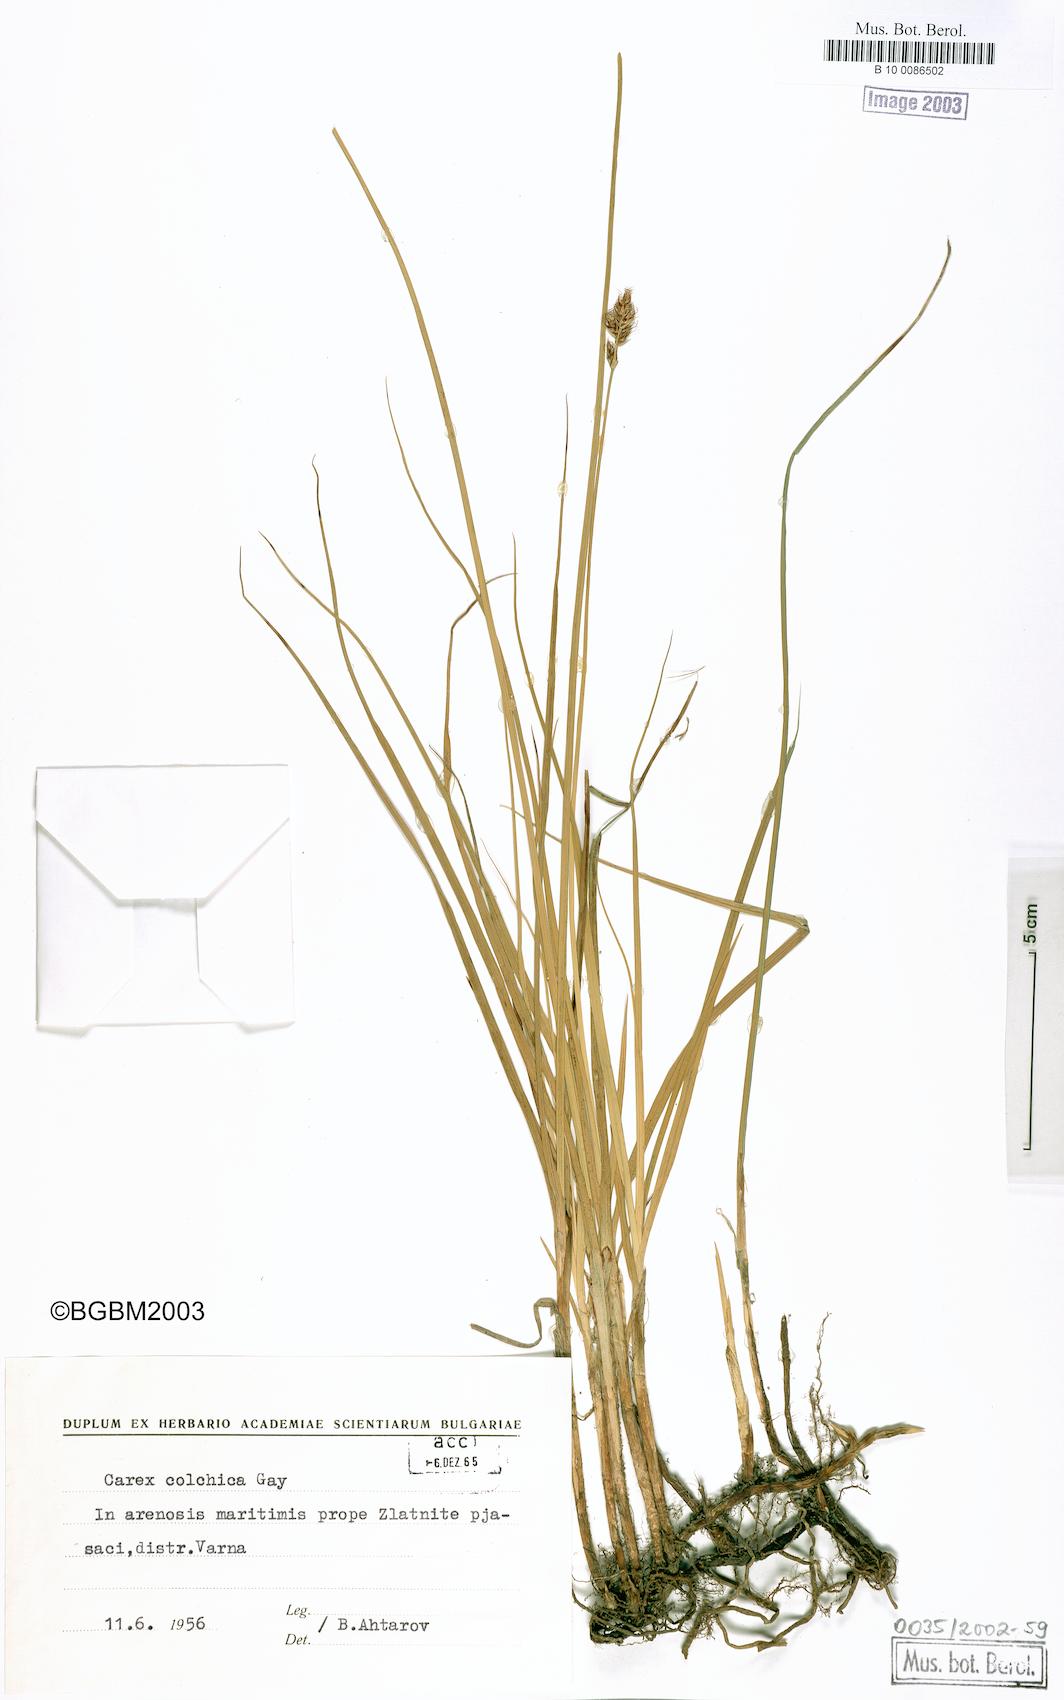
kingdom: Plantae
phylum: Tracheophyta
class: Liliopsida
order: Poales
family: Cyperaceae
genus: Carex
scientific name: Carex colchica
